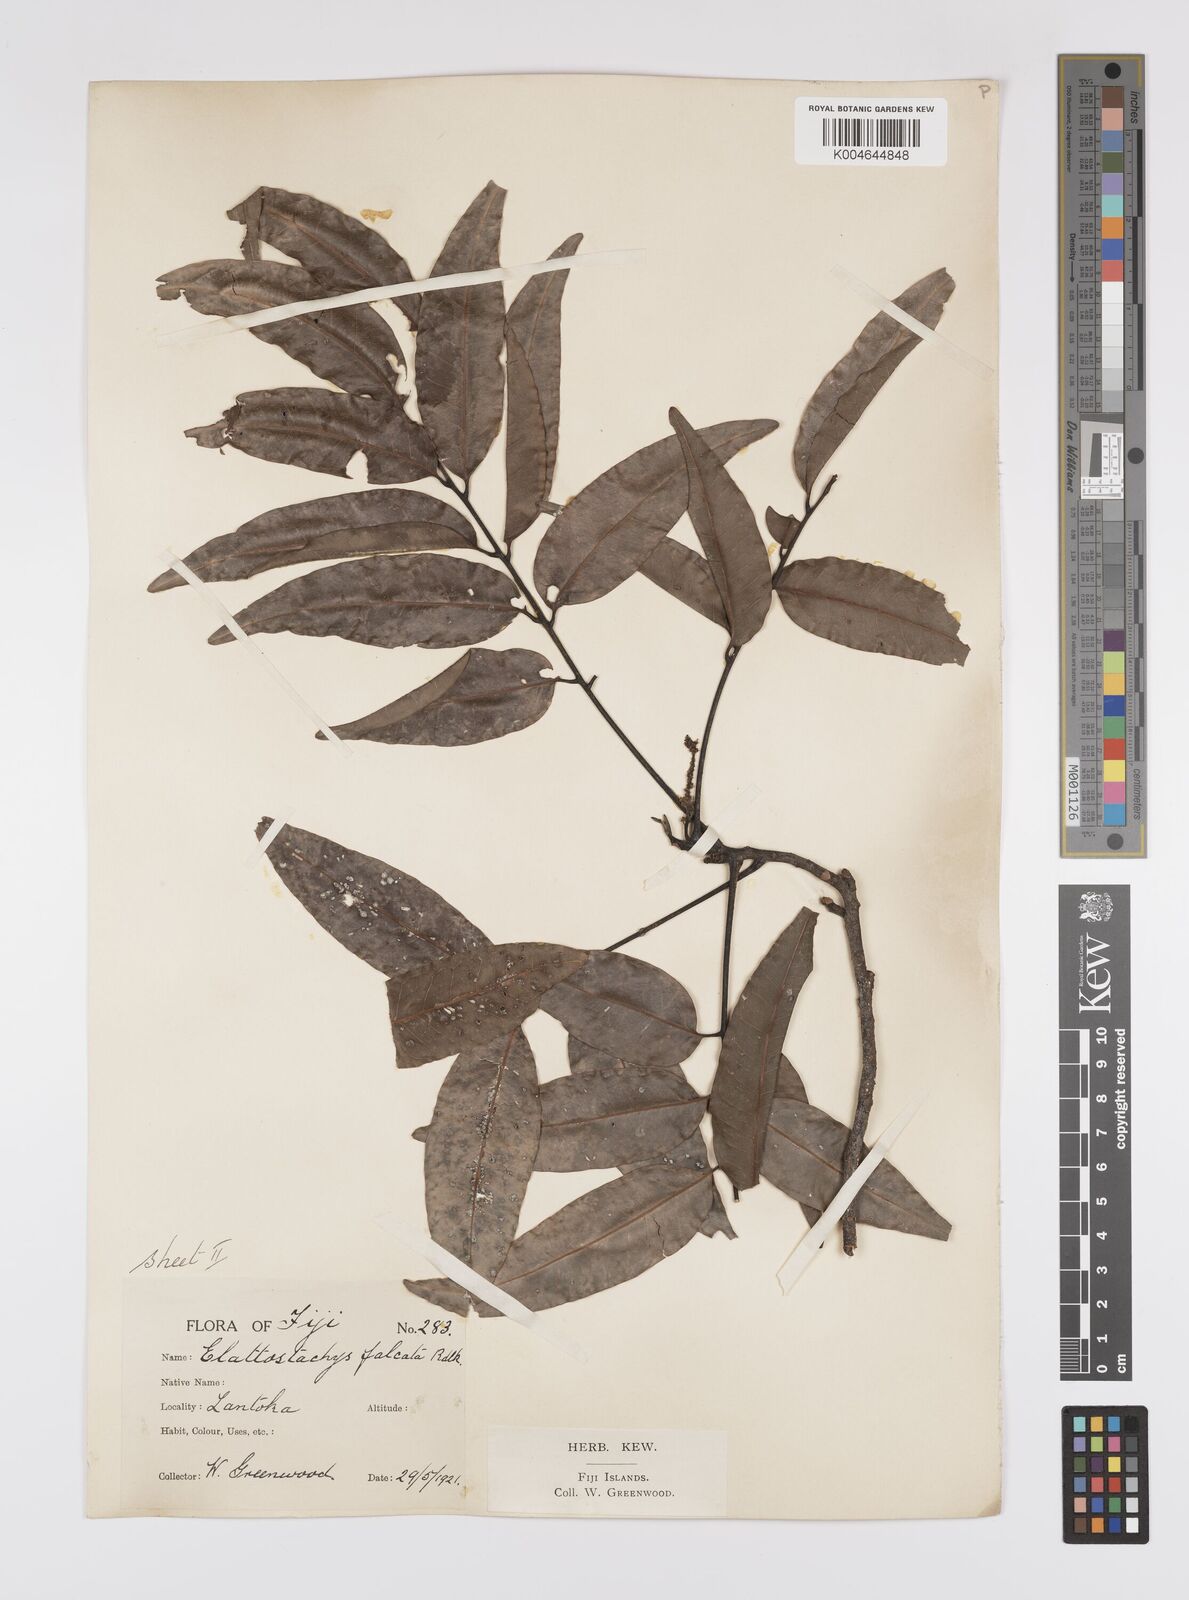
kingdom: Plantae
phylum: Tracheophyta
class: Magnoliopsida
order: Sapindales
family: Sapindaceae
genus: Elattostachys
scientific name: Elattostachys apetala
